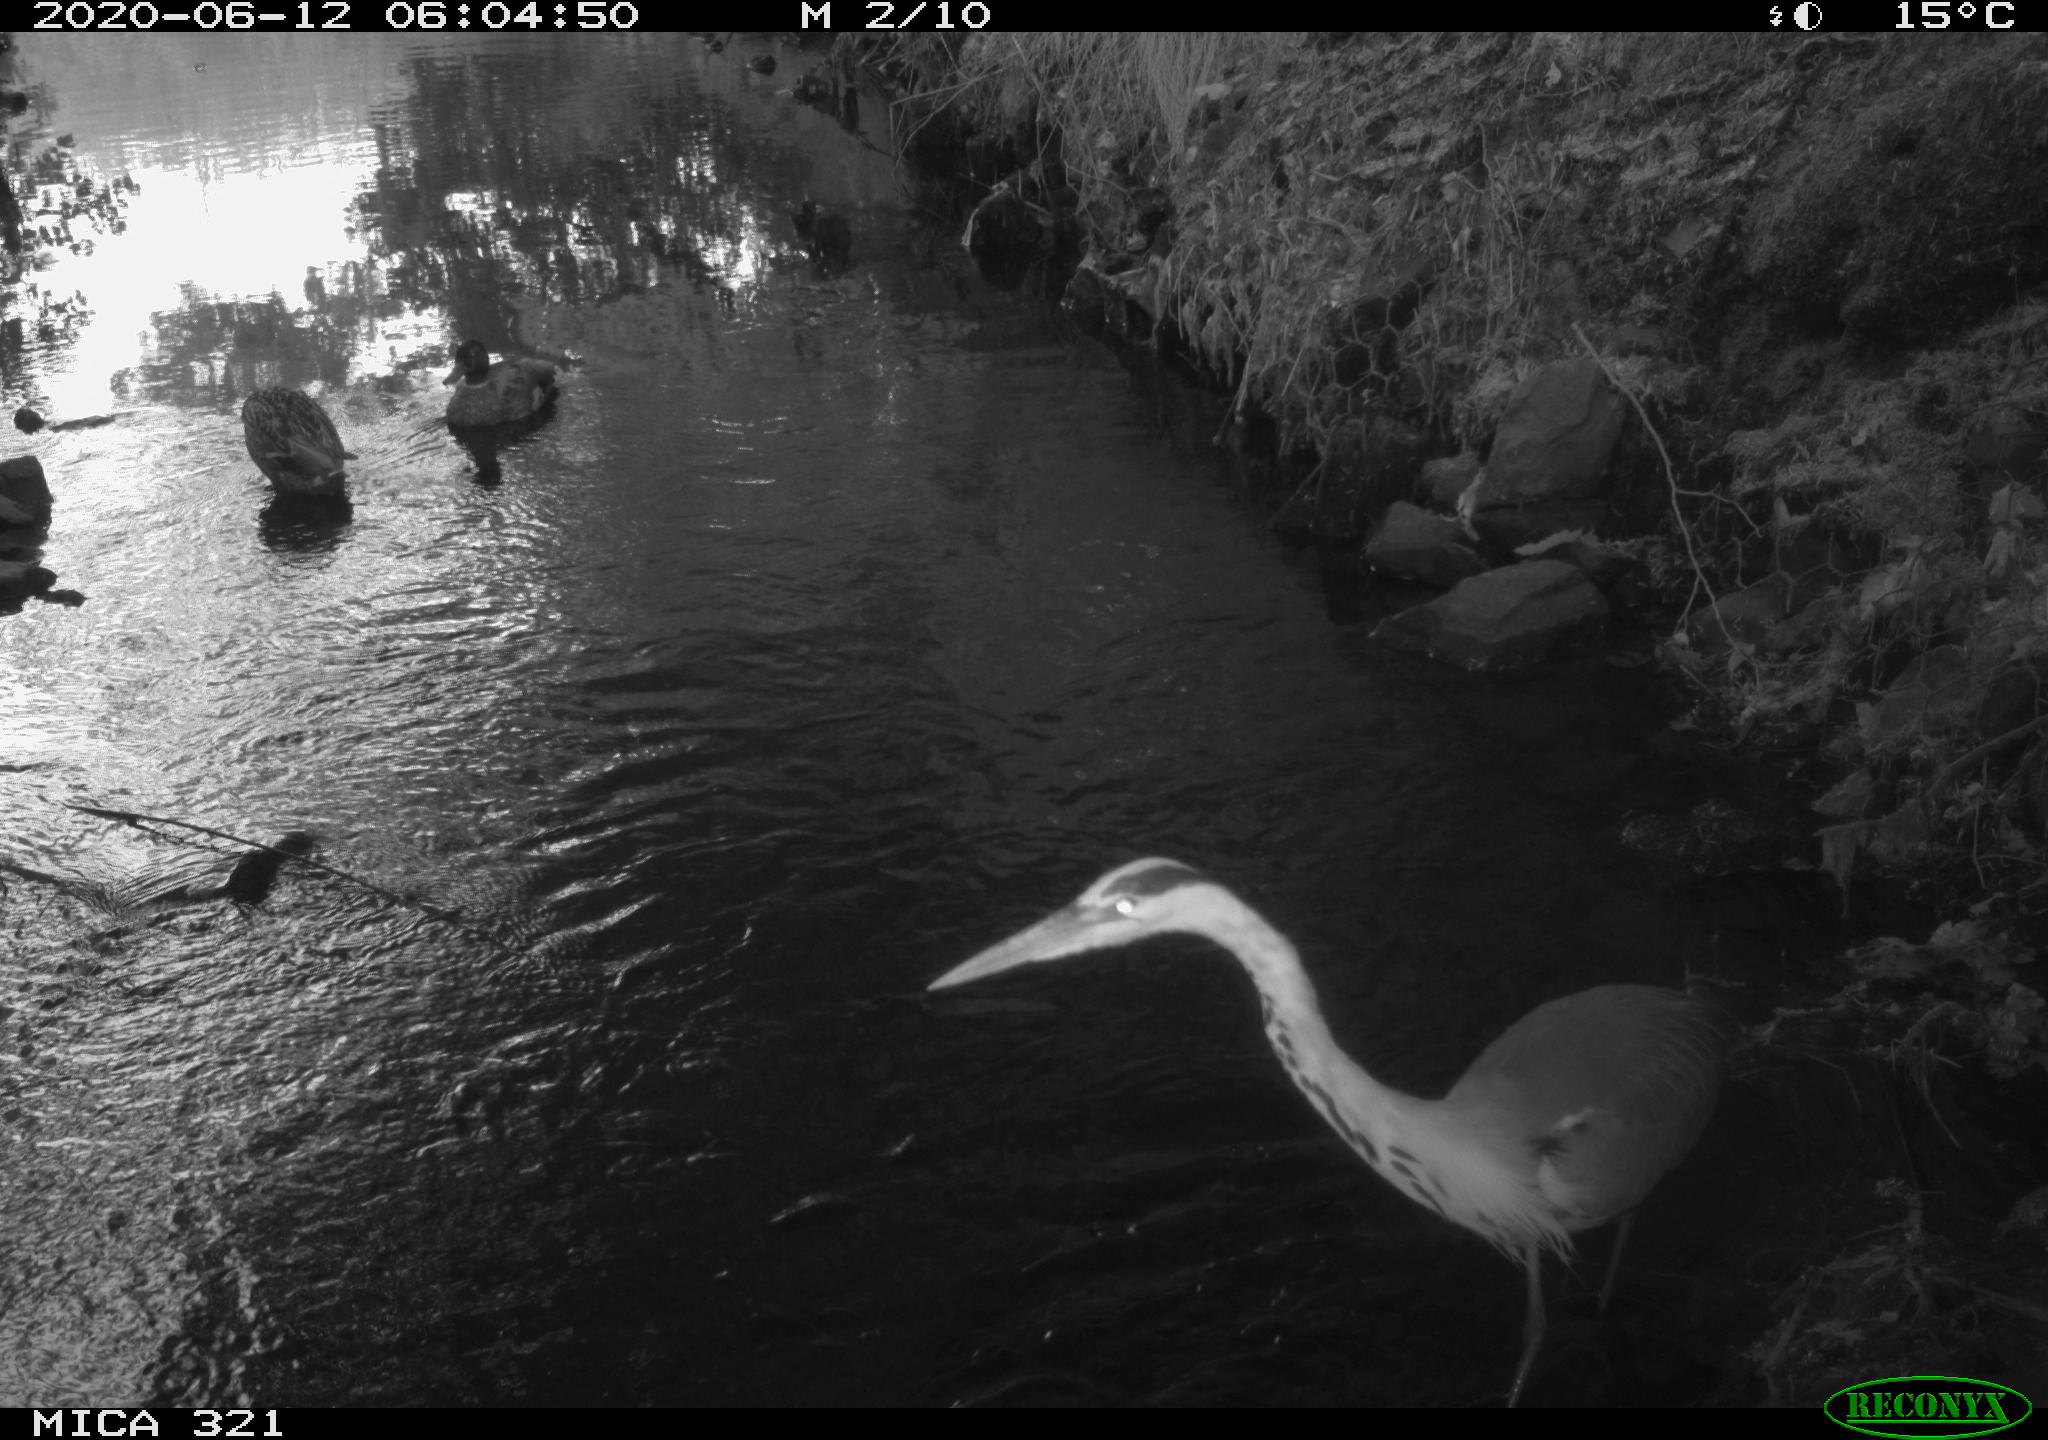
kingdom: Animalia
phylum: Chordata
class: Aves
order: Anseriformes
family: Anatidae
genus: Anas
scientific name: Anas platyrhynchos
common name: Mallard
